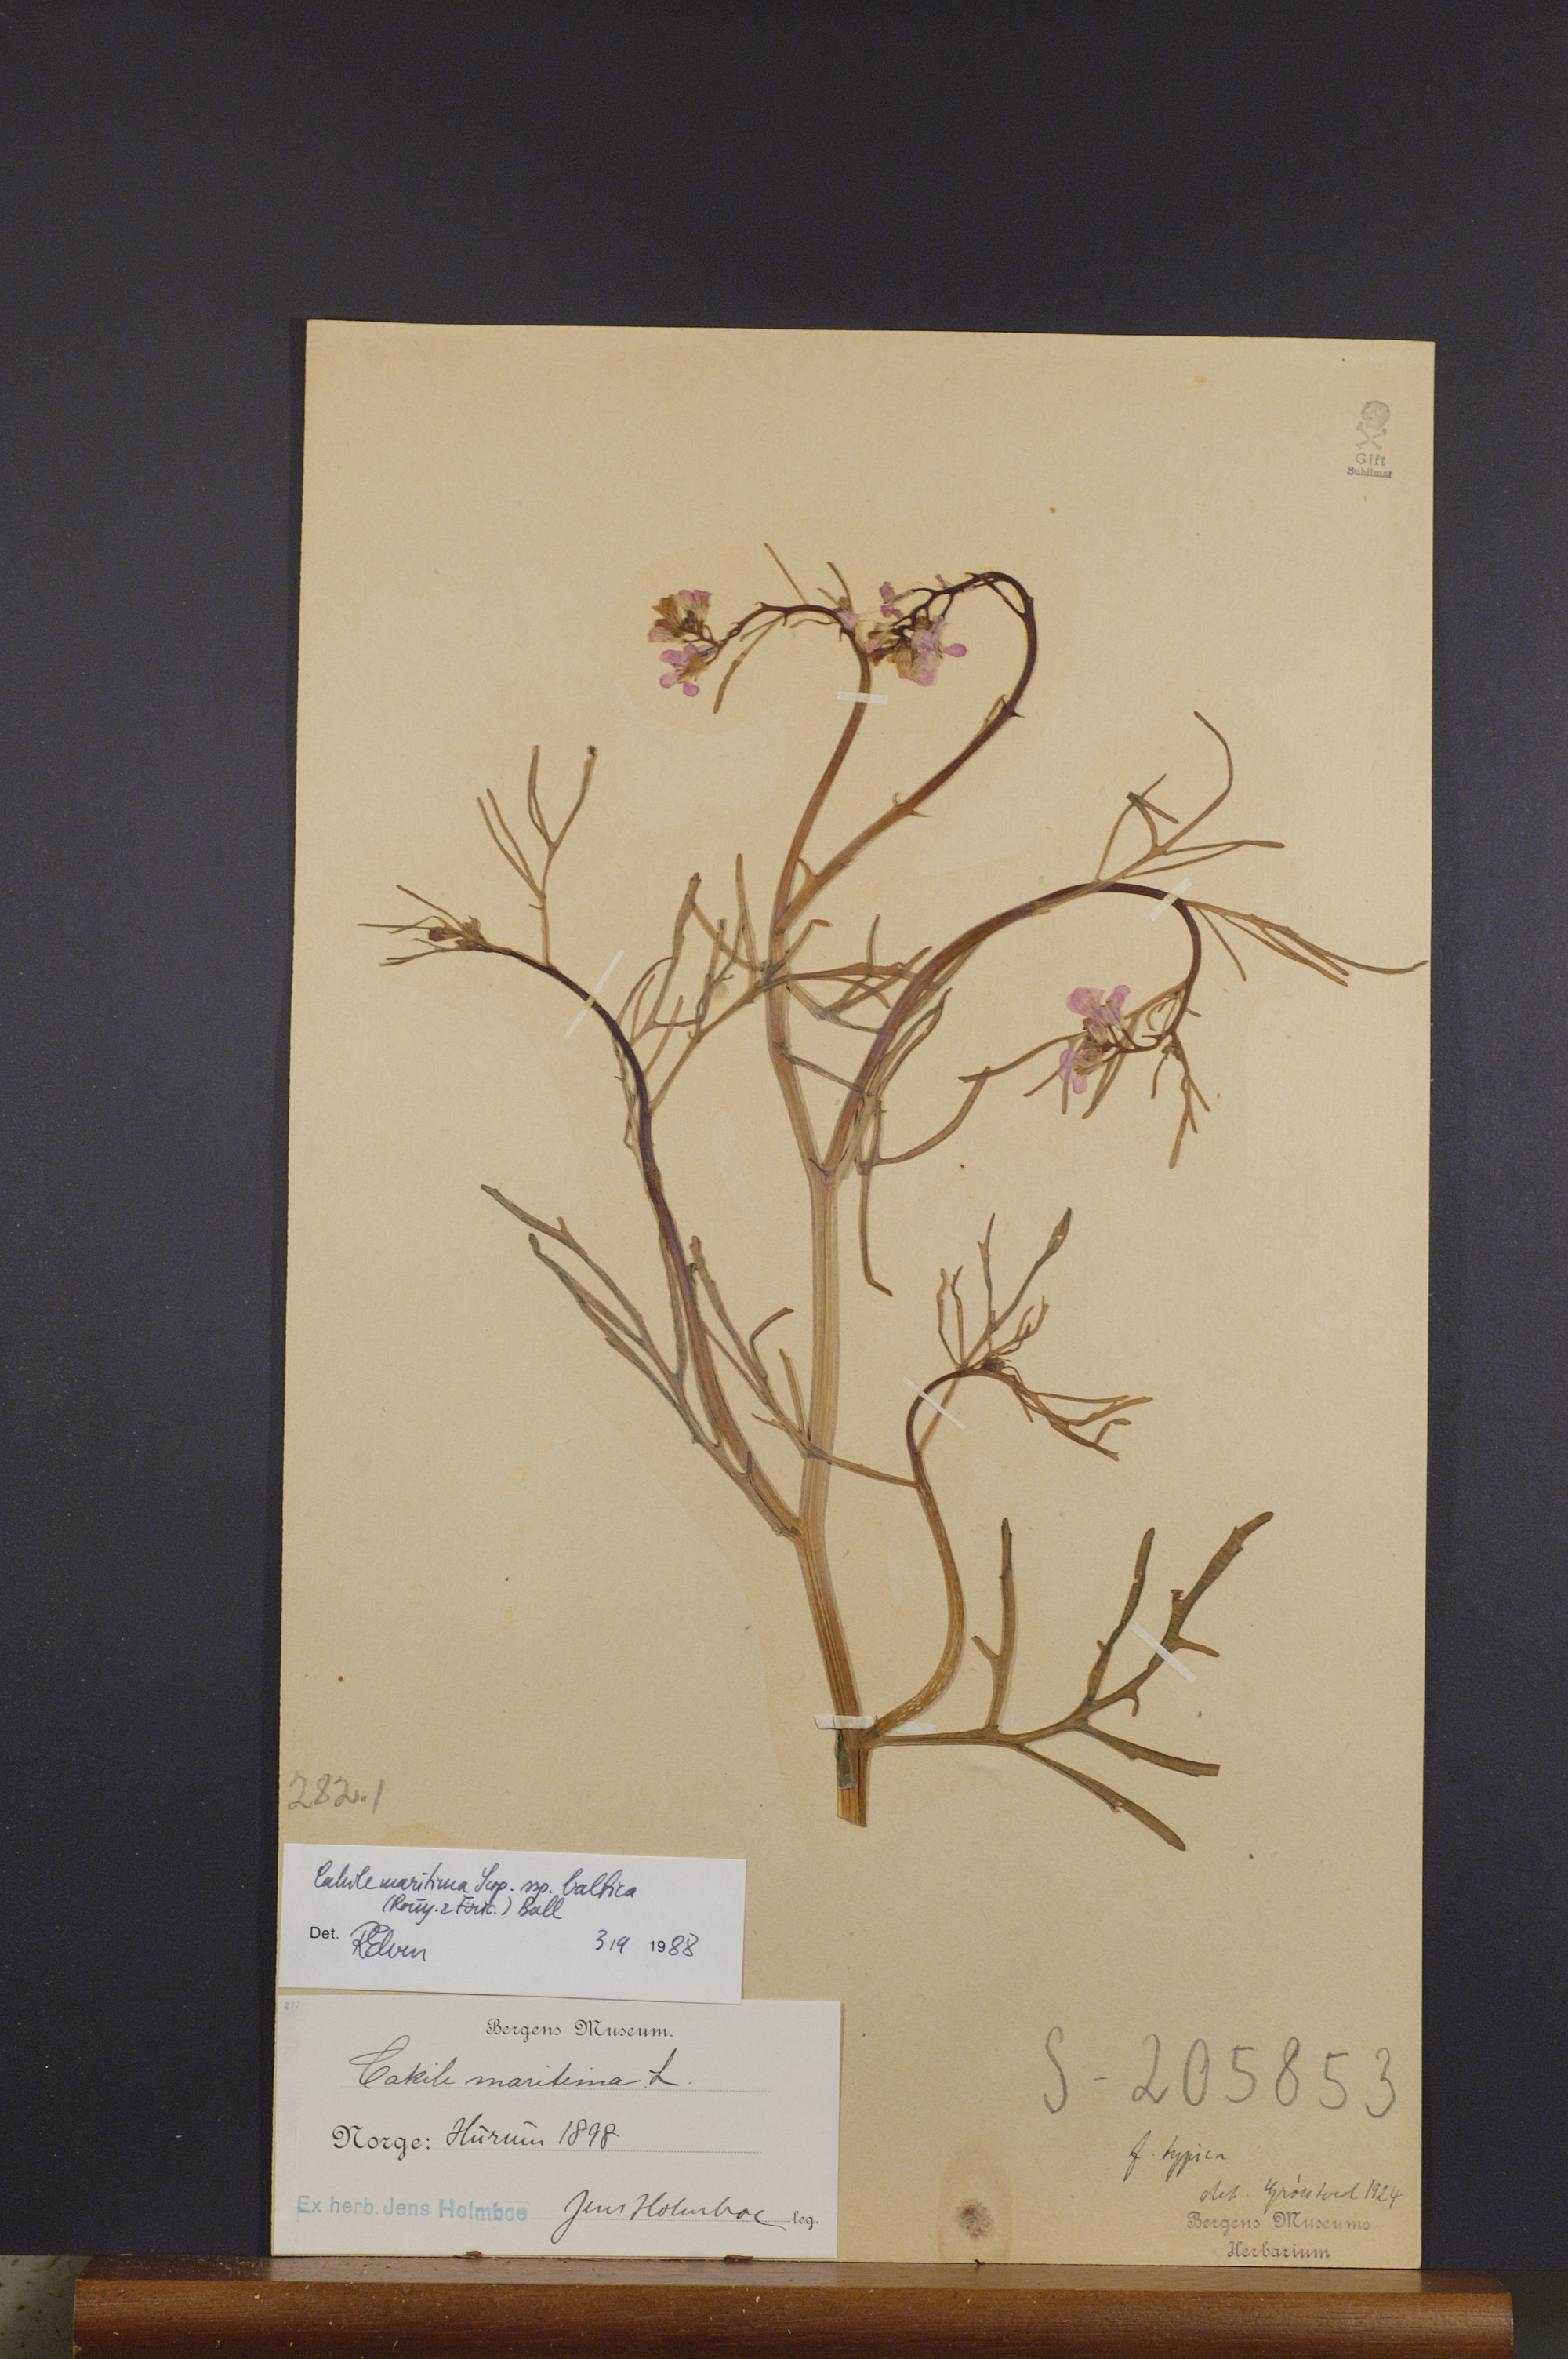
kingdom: Plantae
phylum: Tracheophyta
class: Magnoliopsida
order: Brassicales
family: Brassicaceae
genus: Cakile
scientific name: Cakile maritima
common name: Sea rocket
